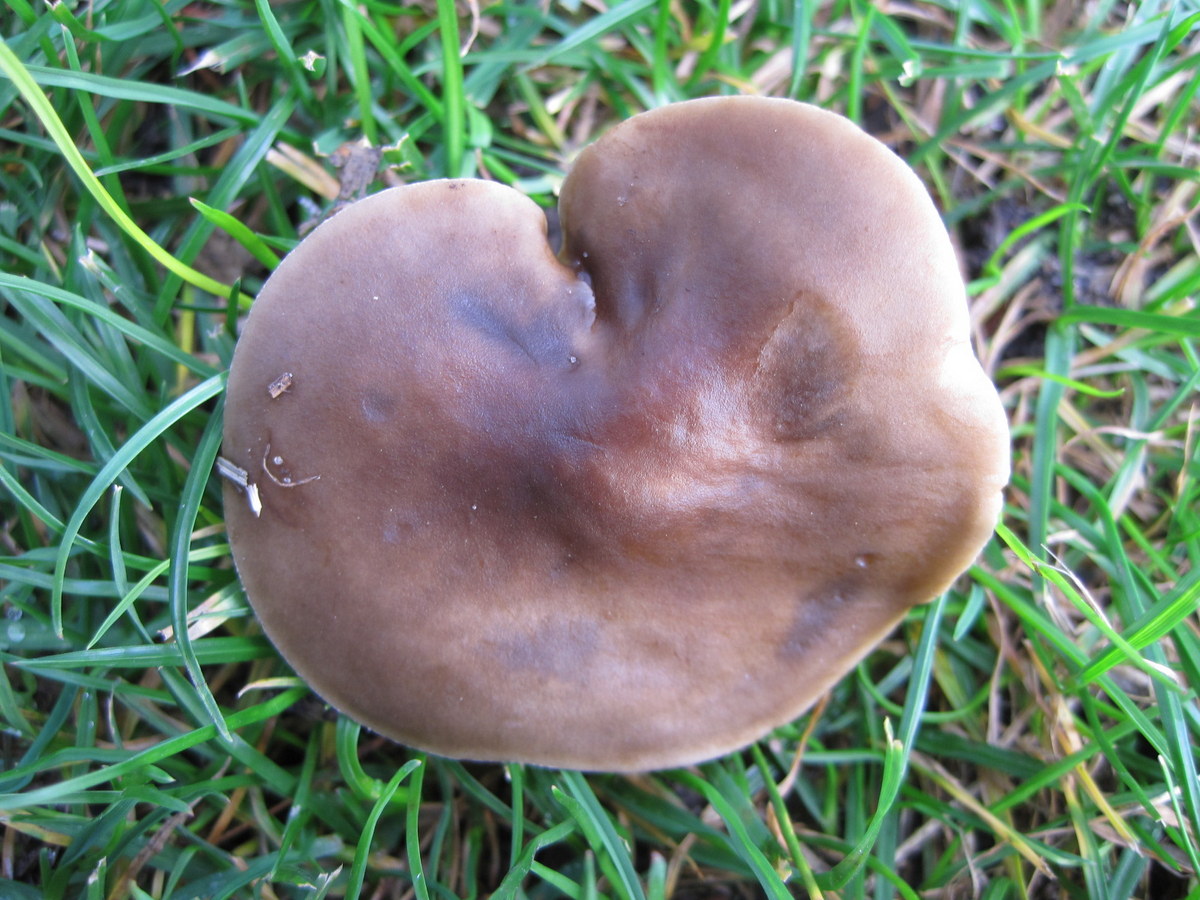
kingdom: Fungi
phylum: Basidiomycota
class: Agaricomycetes
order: Agaricales
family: Tricholomataceae
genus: Melanoleuca
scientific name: Melanoleuca exscissa
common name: gusten munkehat
